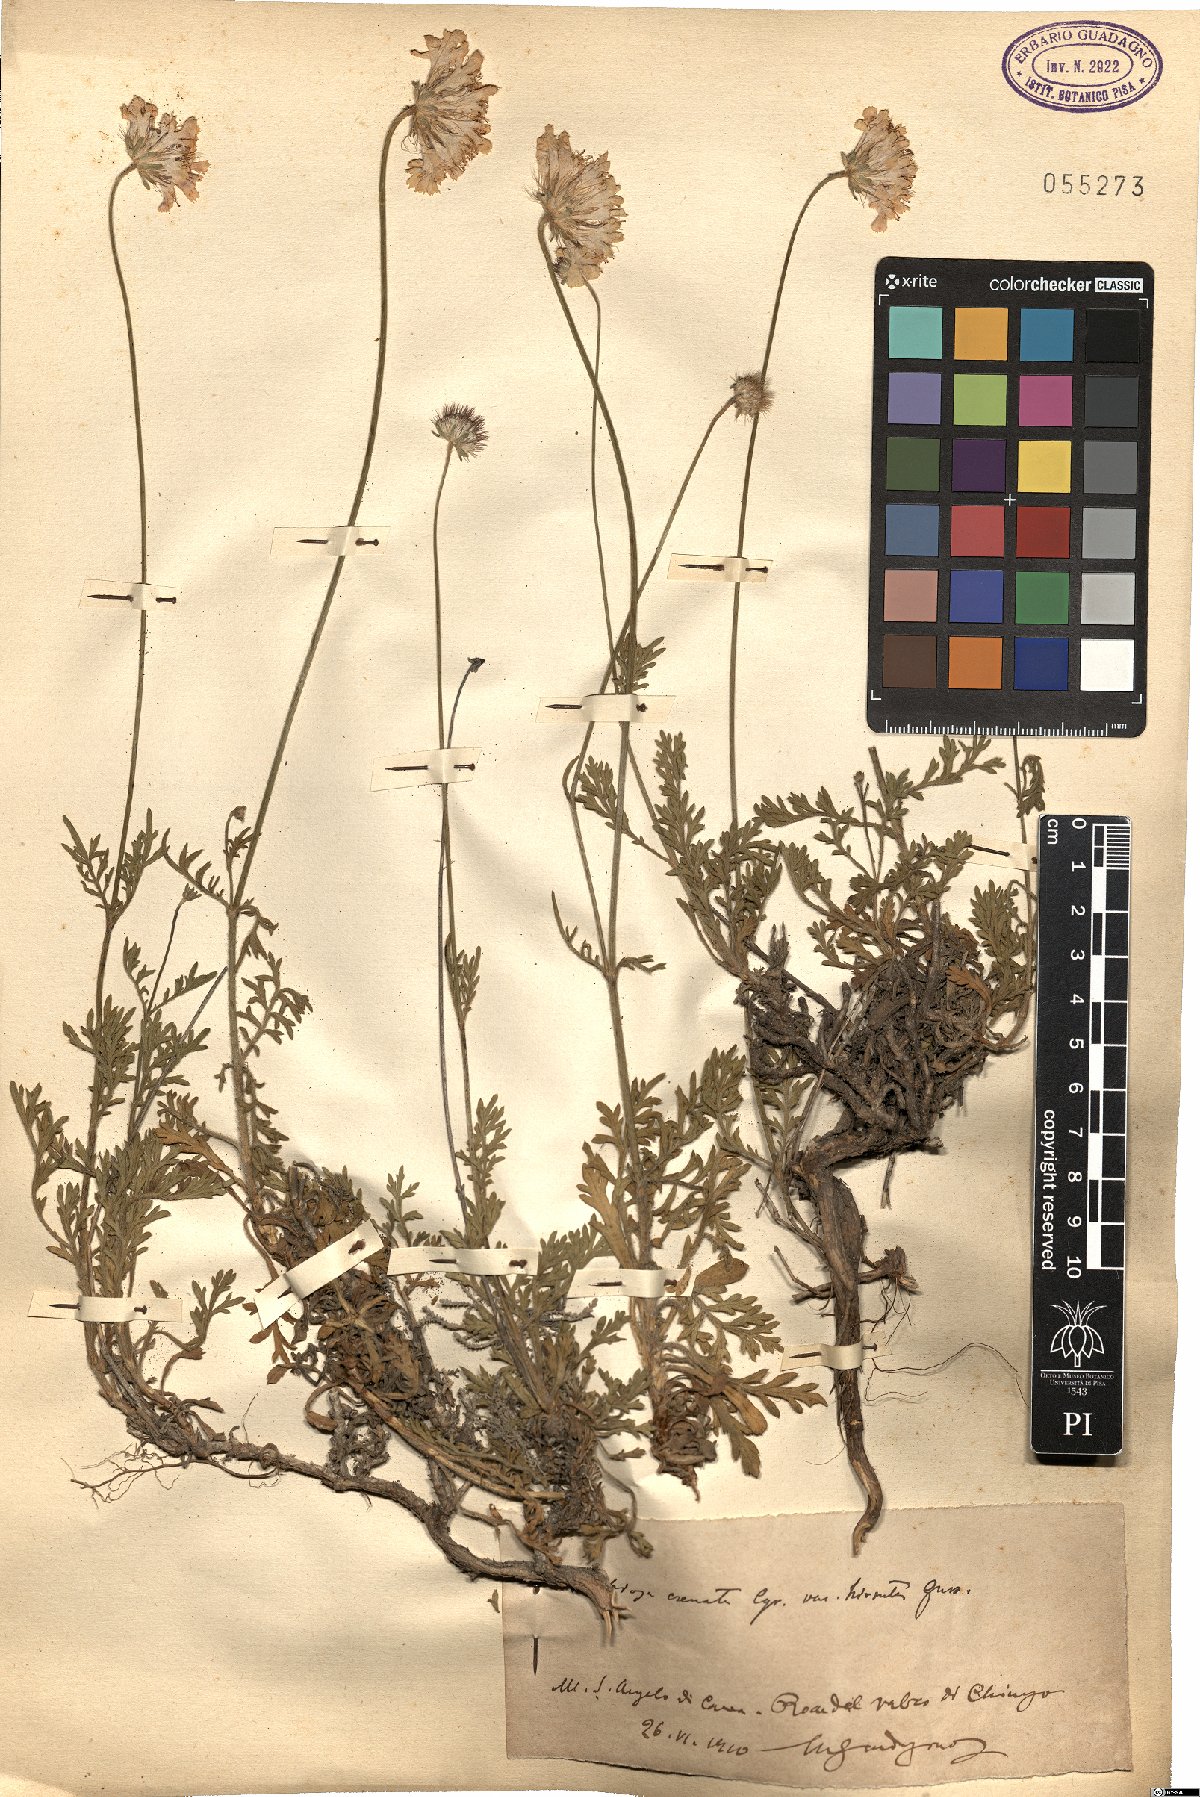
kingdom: Plantae
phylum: Tracheophyta
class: Magnoliopsida
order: Dipsacales
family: Caprifoliaceae
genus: Lomelosia
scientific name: Lomelosia crenata
